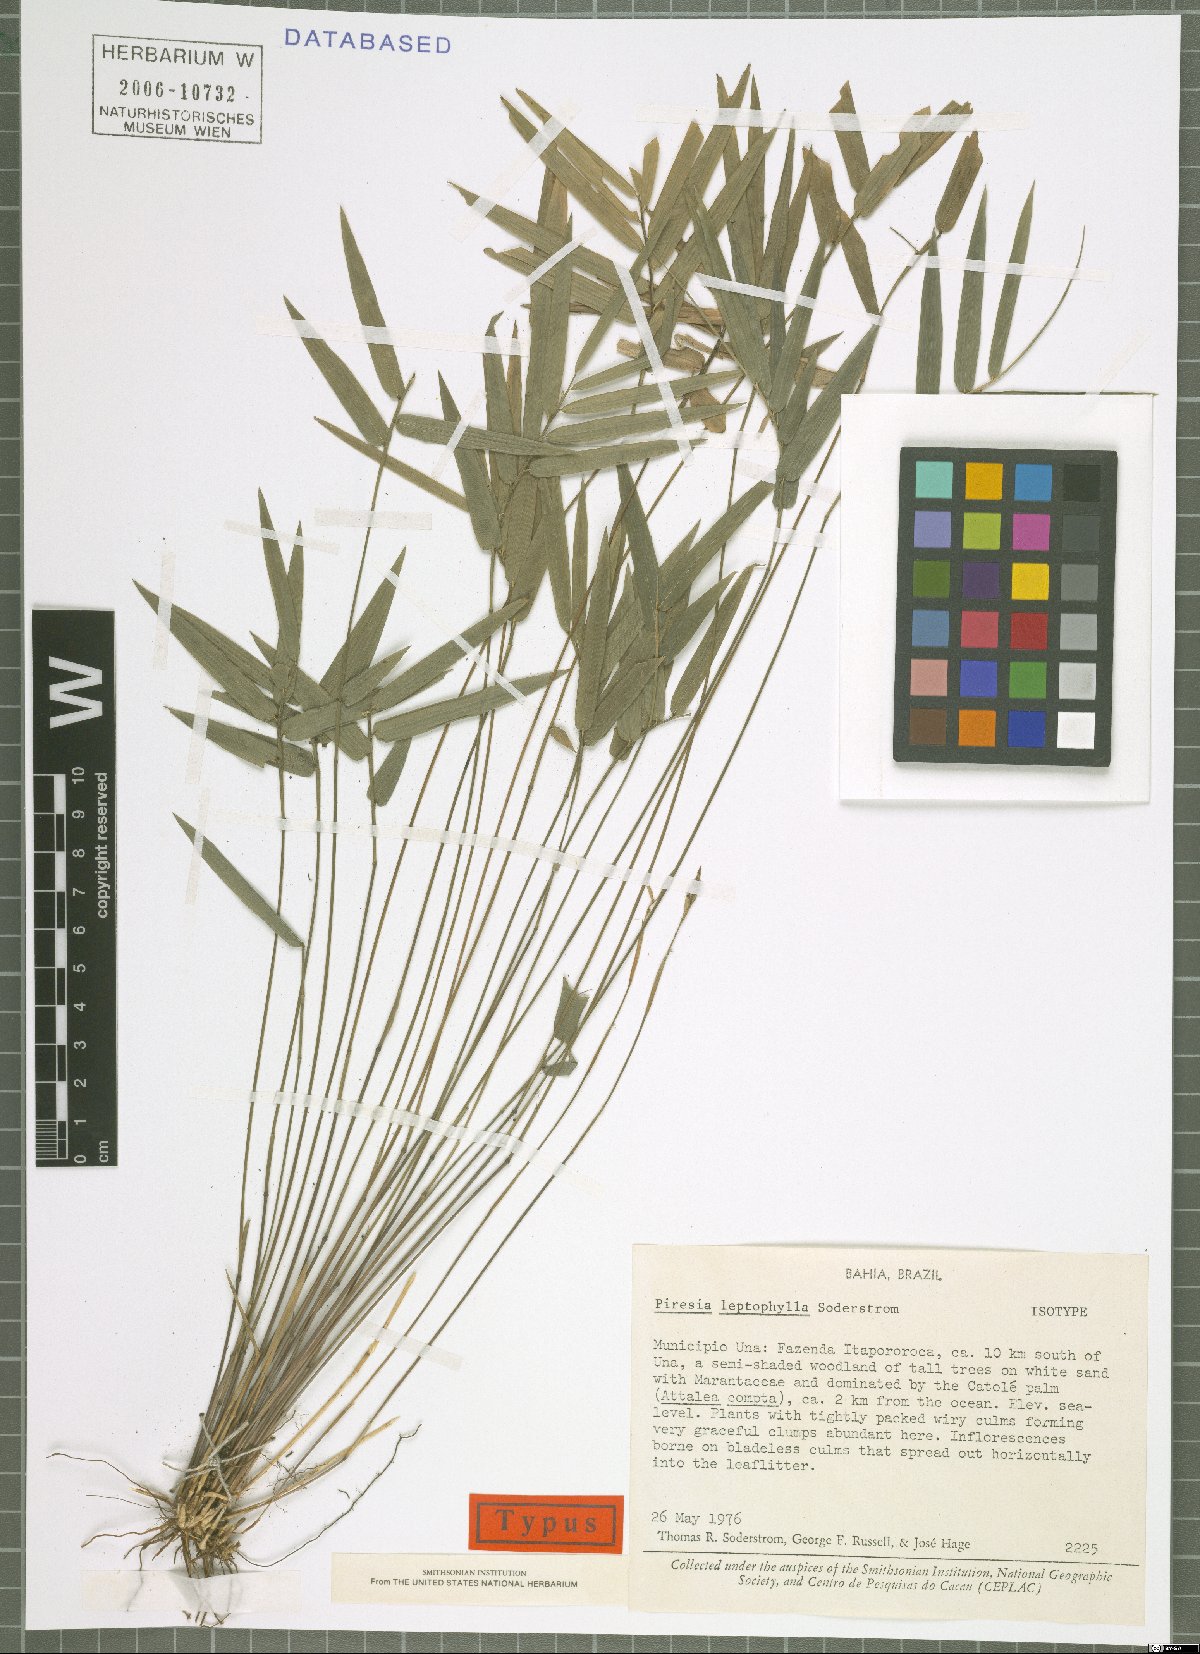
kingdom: Plantae
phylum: Tracheophyta
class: Liliopsida
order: Poales
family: Poaceae
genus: Piresia
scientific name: Piresia leptophylla
